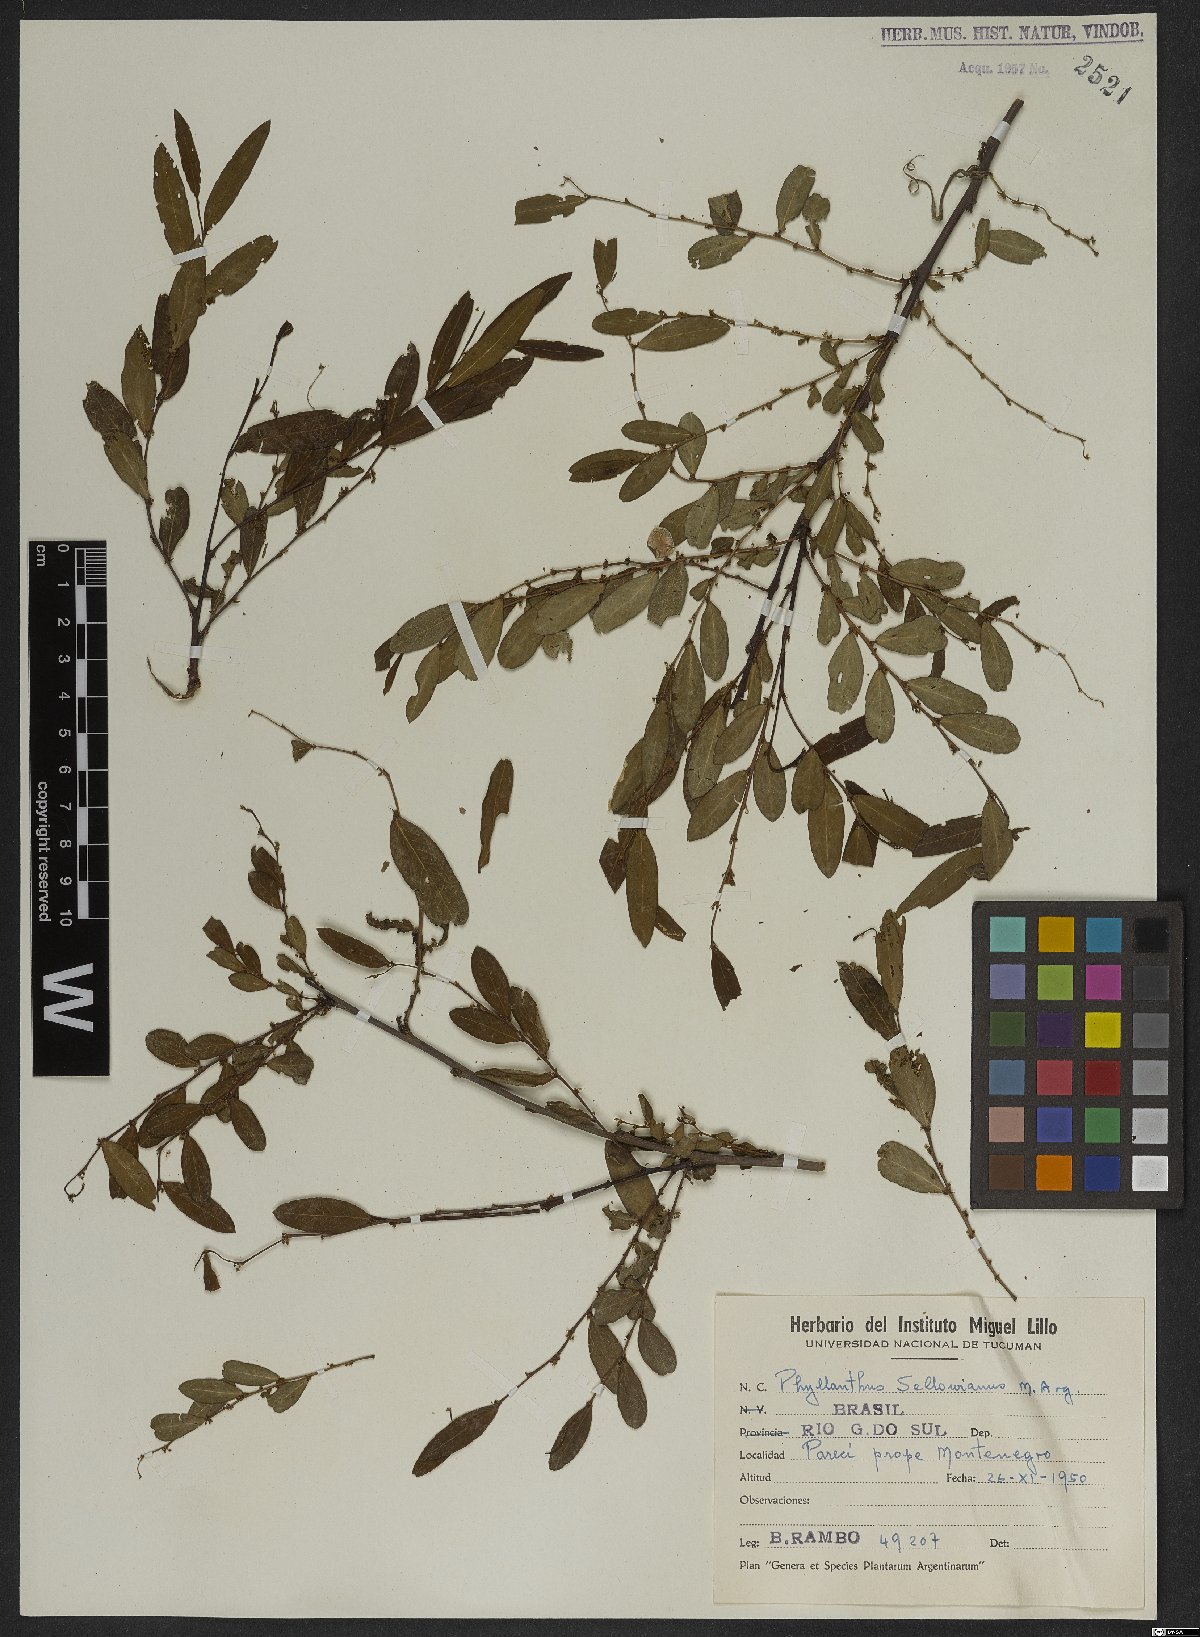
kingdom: Plantae
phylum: Tracheophyta
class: Magnoliopsida
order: Malpighiales
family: Phyllanthaceae
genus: Phyllanthus
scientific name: Phyllanthus sellowianus
